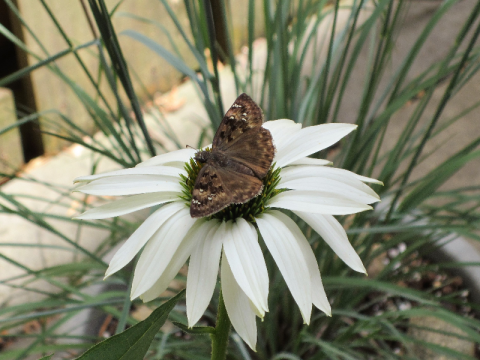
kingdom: Animalia
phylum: Arthropoda
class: Insecta
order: Lepidoptera
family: Hesperiidae
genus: Gesta
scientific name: Gesta
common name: Horace's Duskywing
